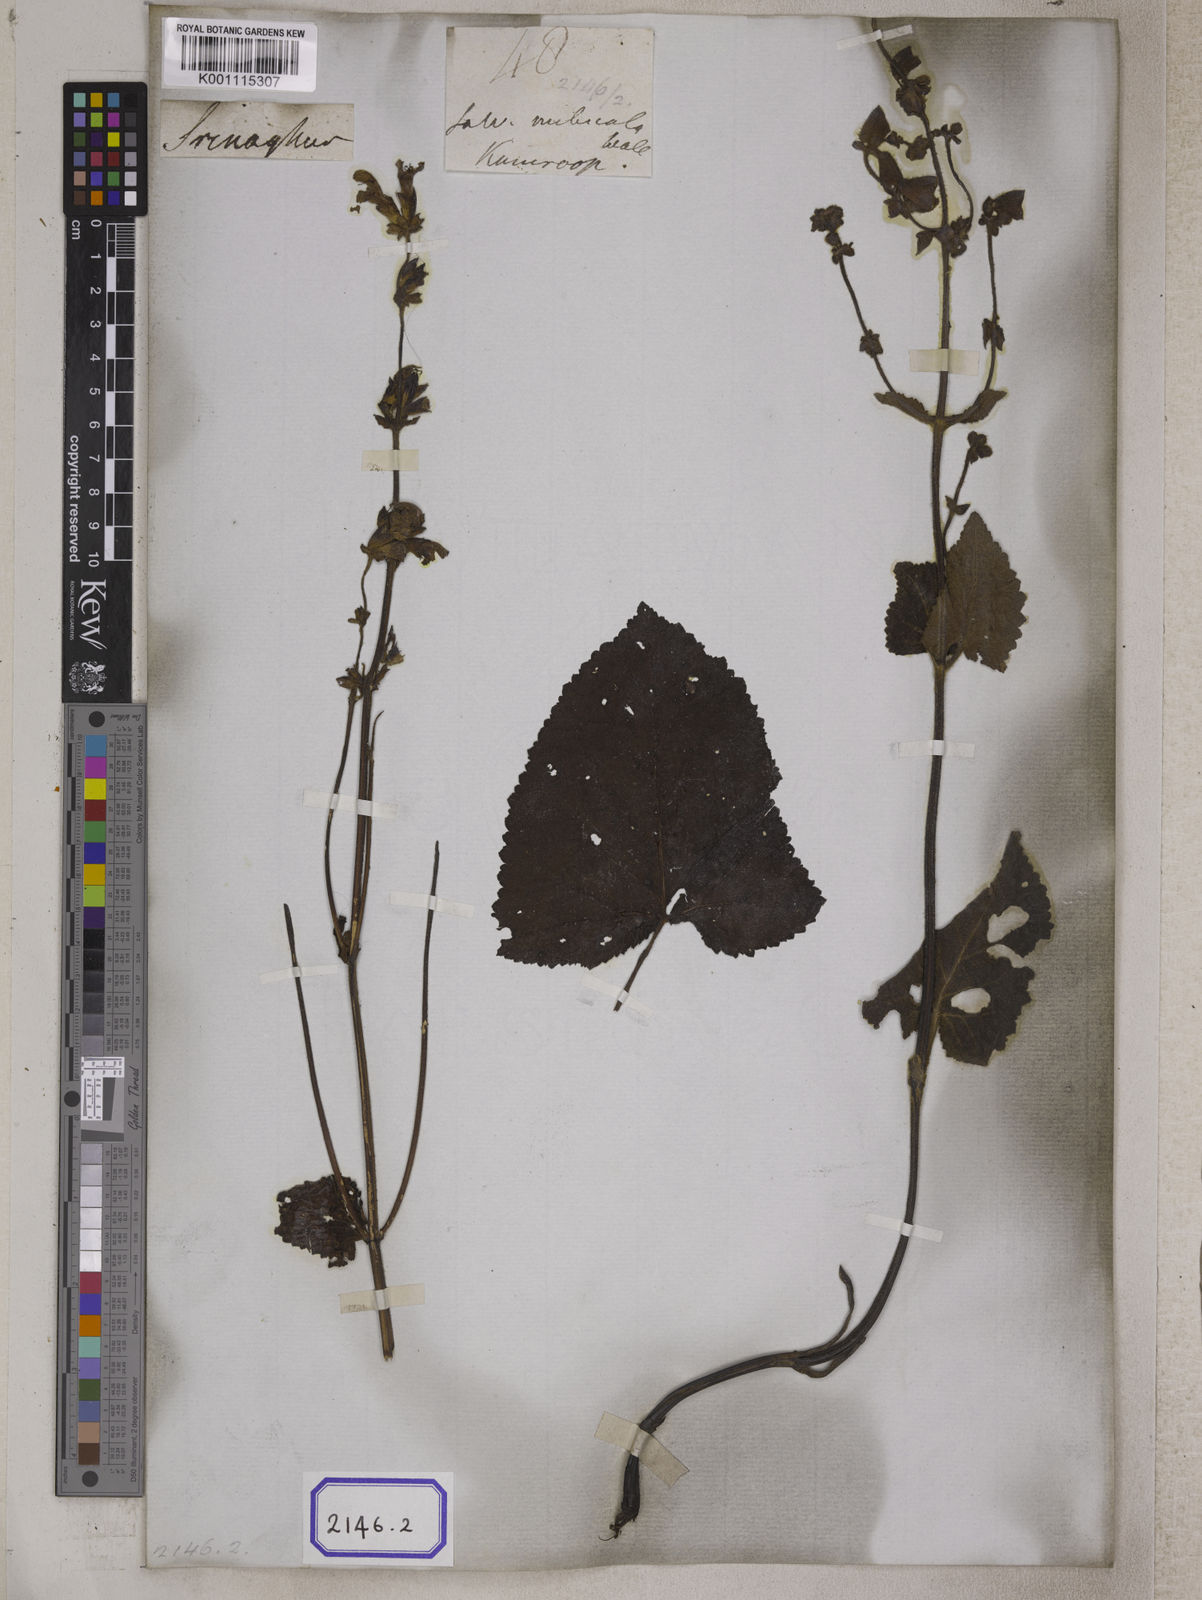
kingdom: Plantae
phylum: Tracheophyta
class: Magnoliopsida
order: Lamiales
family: Lamiaceae
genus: Salvia
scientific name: Salvia
